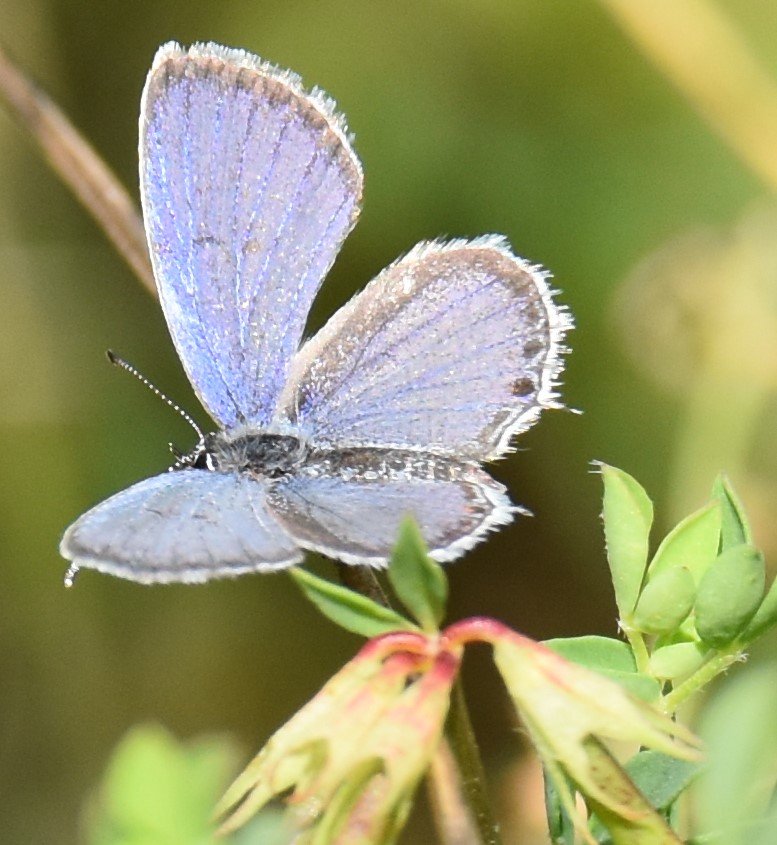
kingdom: Animalia
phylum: Arthropoda
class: Insecta
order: Lepidoptera
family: Lycaenidae
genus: Elkalyce
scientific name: Elkalyce comyntas
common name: Eastern Tailed-Blue
